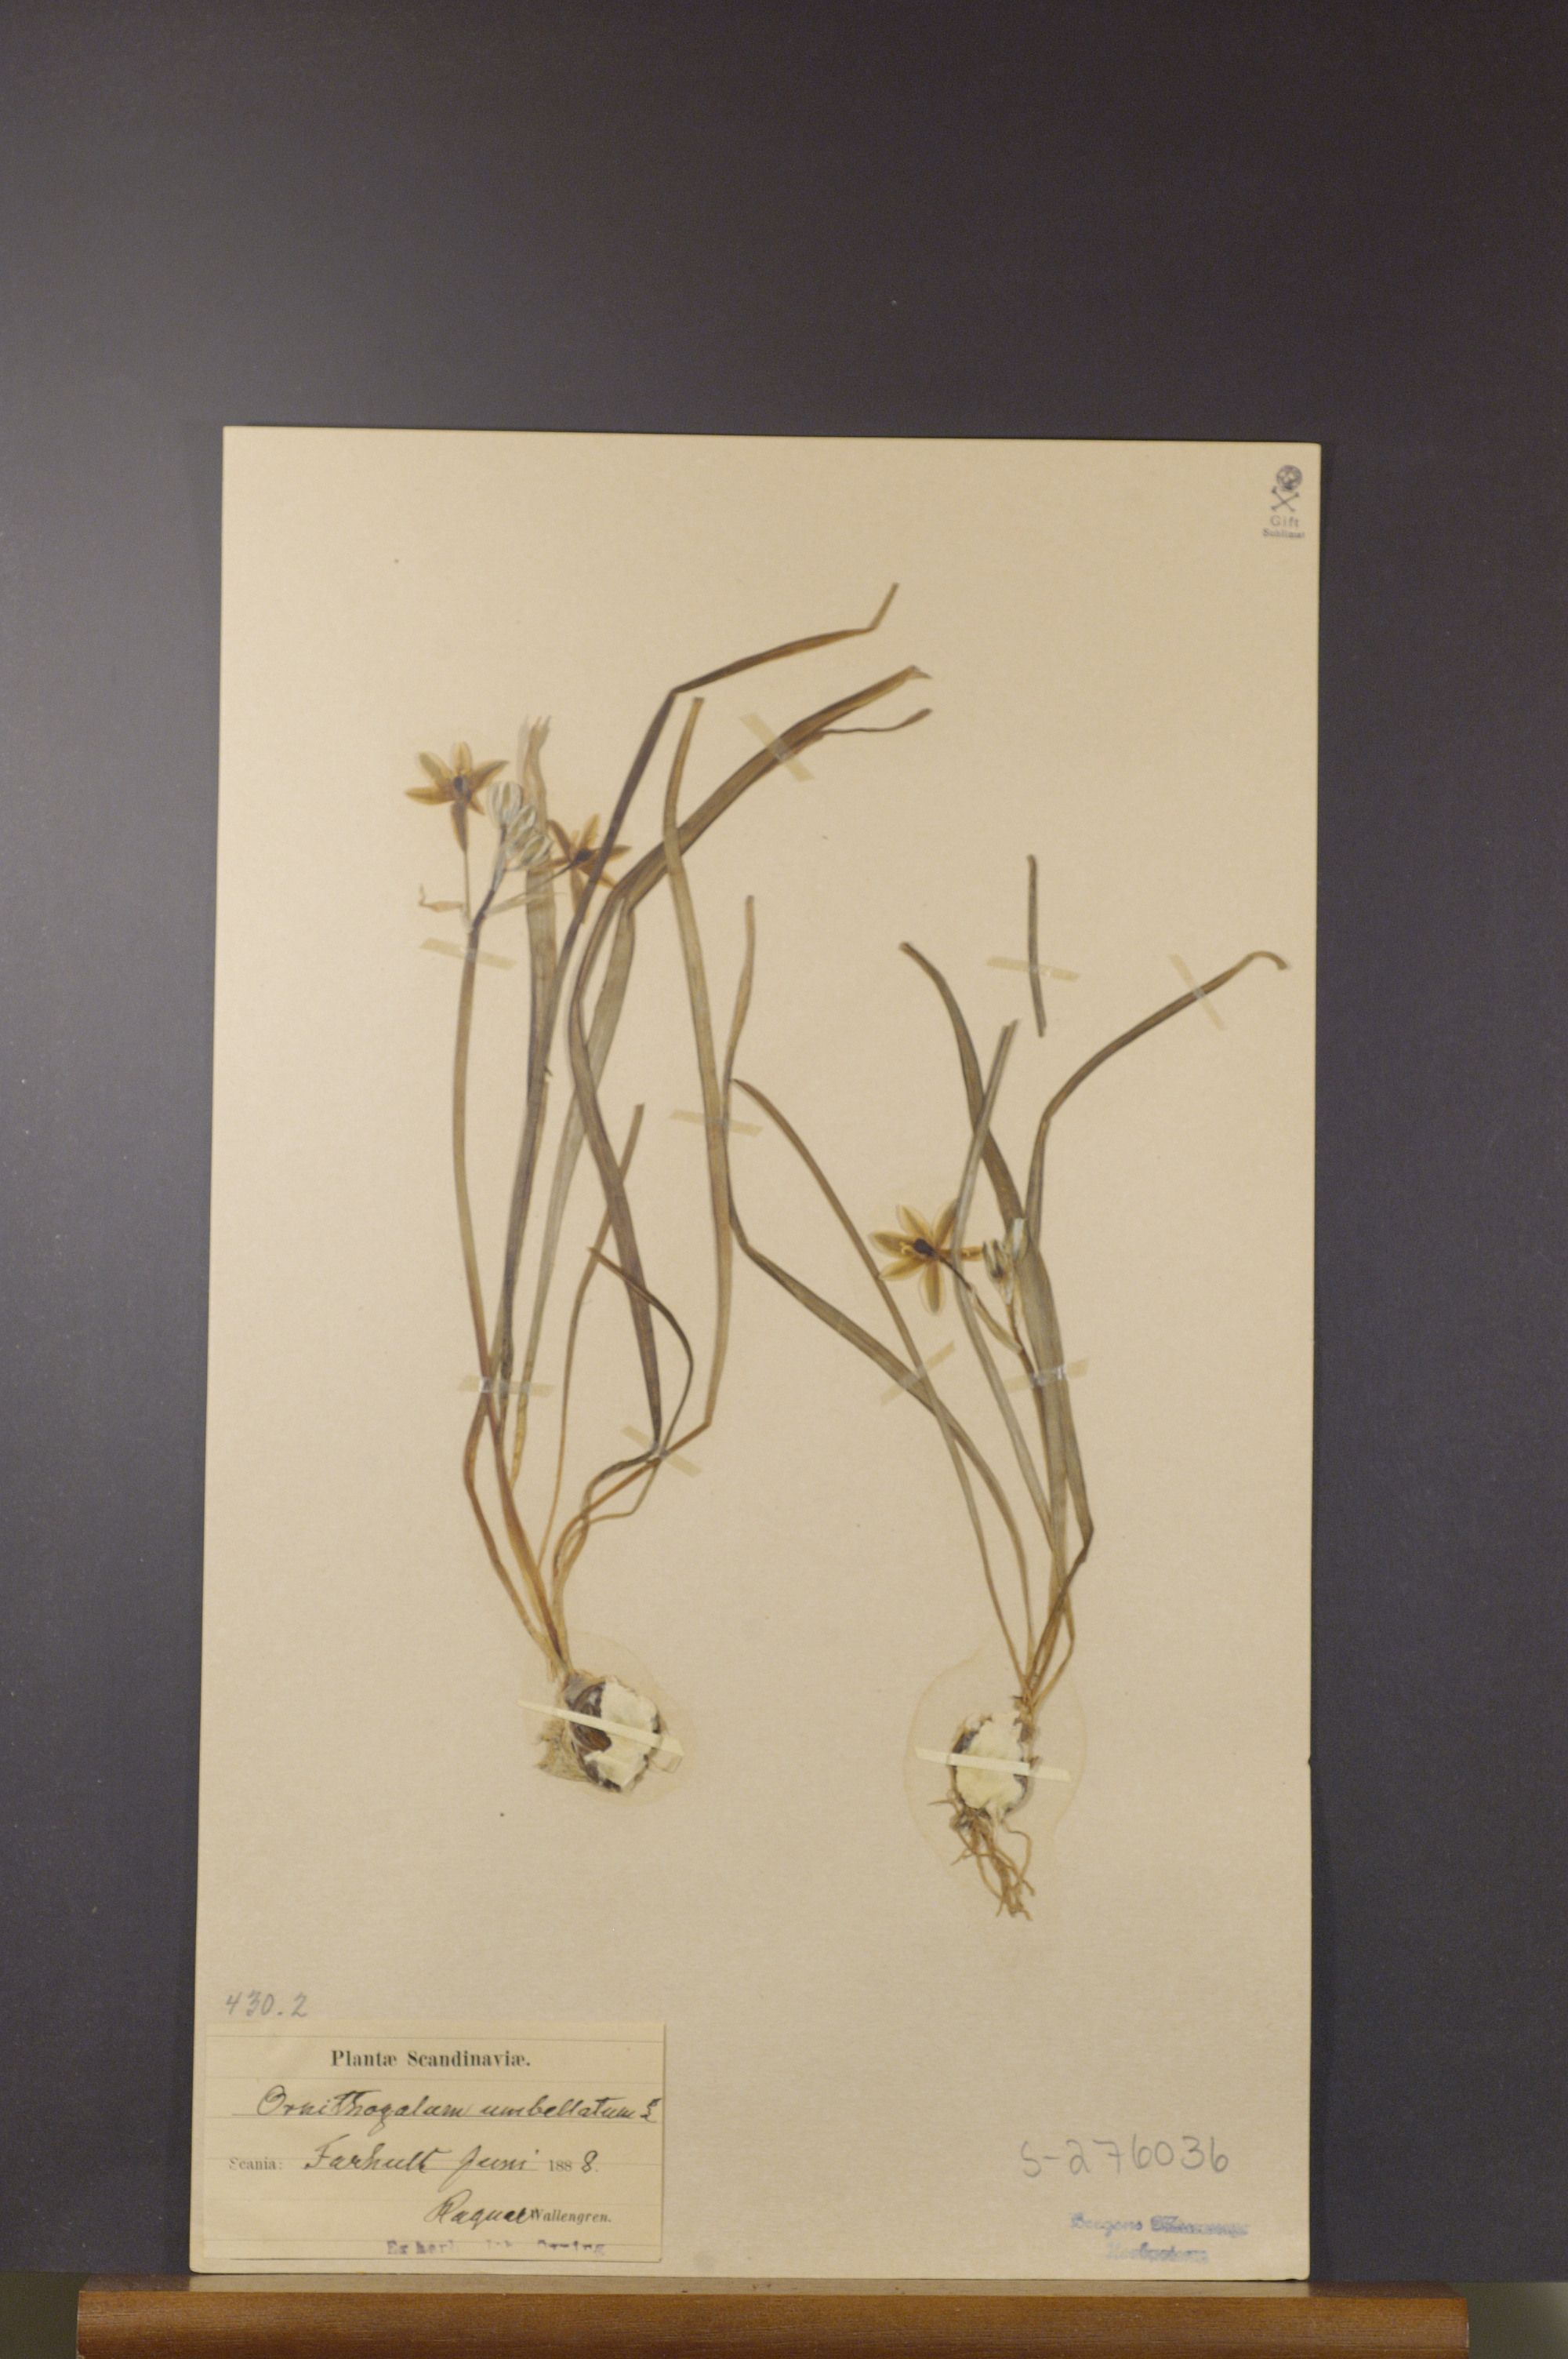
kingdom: Plantae
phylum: Tracheophyta
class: Liliopsida
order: Asparagales
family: Asparagaceae
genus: Ornithogalum
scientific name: Ornithogalum umbellatum
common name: Garden star-of-bethlehem
